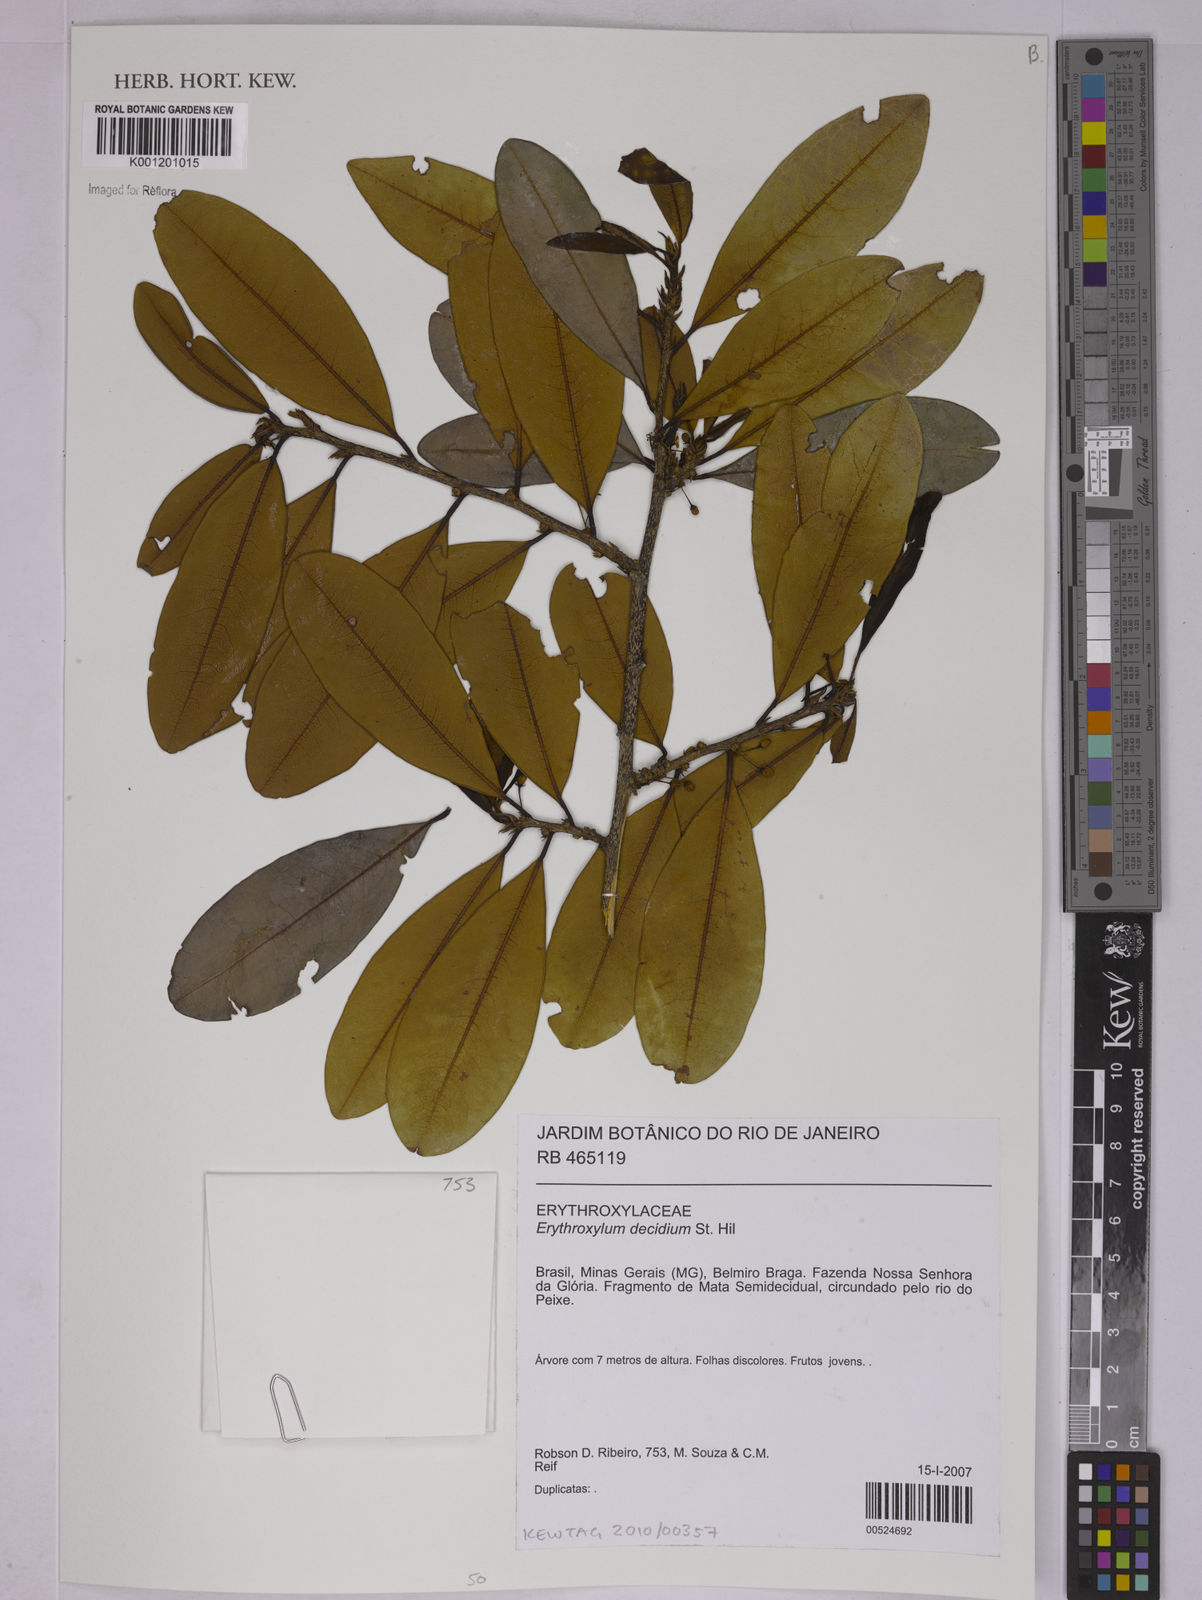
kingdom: Plantae
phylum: Tracheophyta
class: Magnoliopsida
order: Malpighiales
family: Erythroxylaceae
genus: Erythroxylum
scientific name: Erythroxylum deciduum
